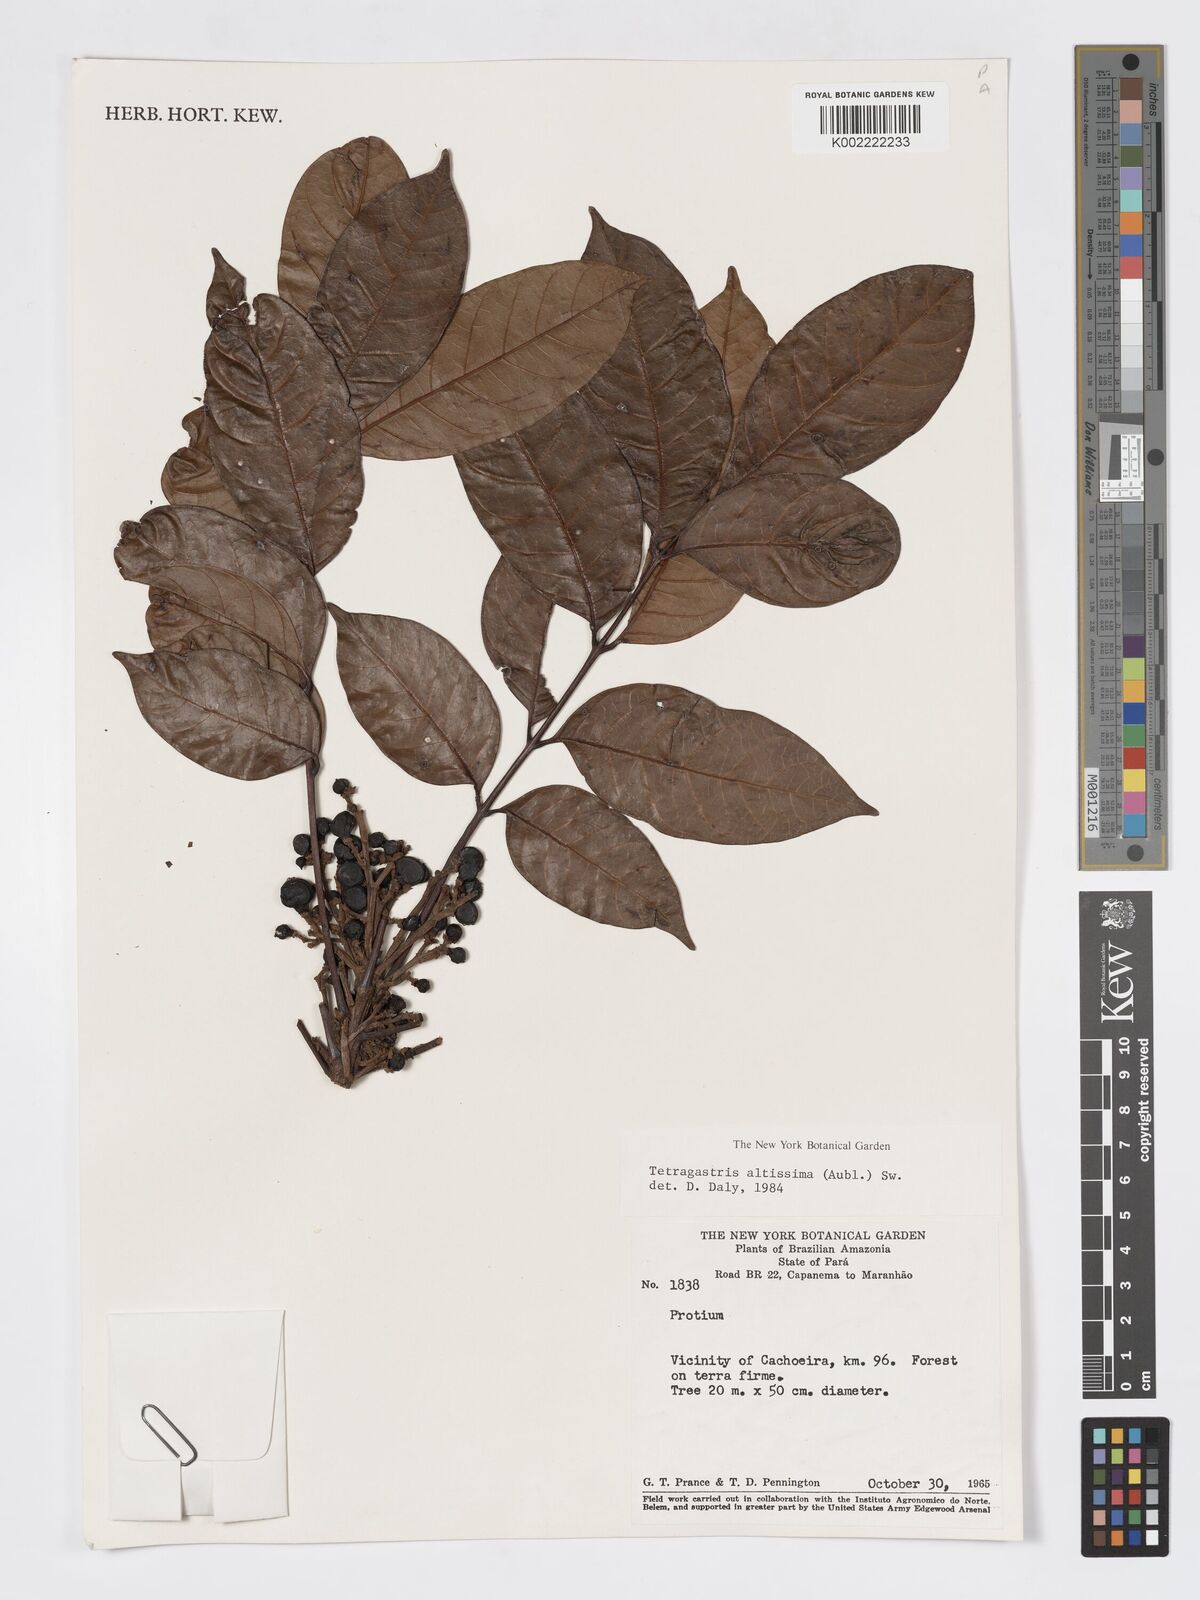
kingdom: Plantae
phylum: Tracheophyta
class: Magnoliopsida
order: Sapindales
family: Burseraceae
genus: Tetragastris
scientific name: Tetragastris altissima
